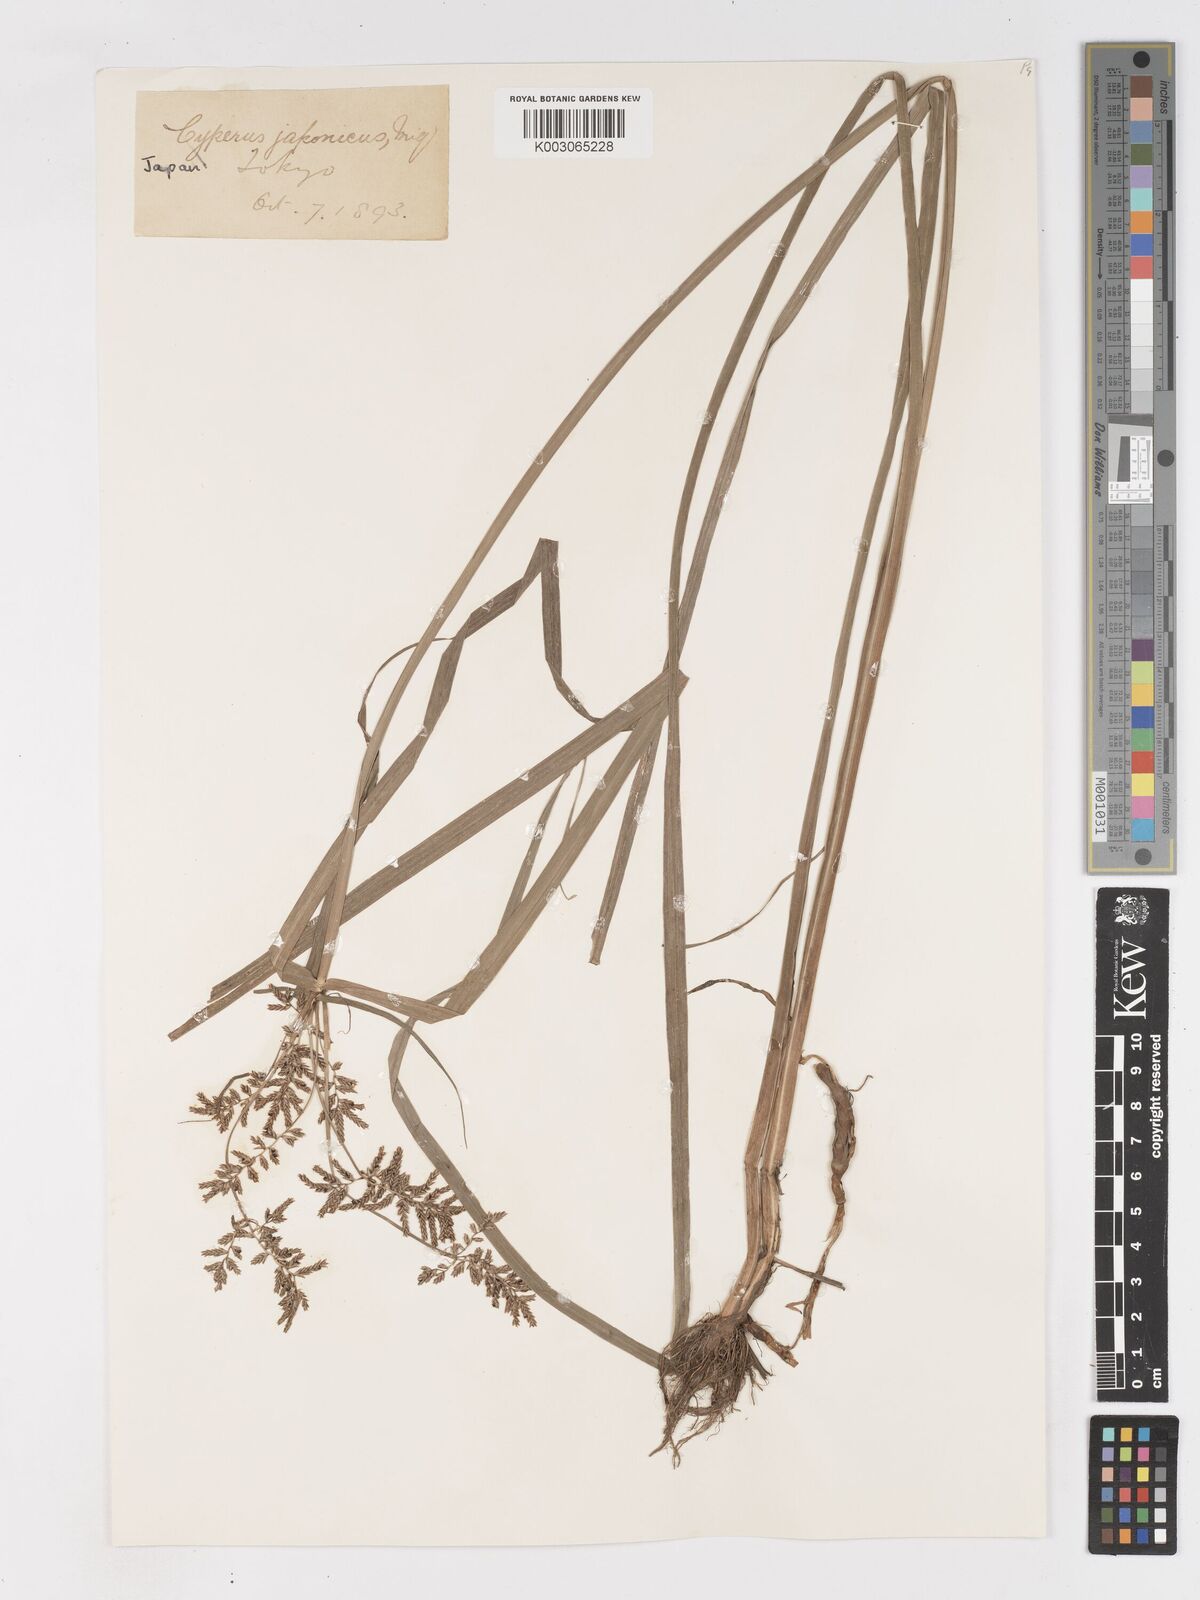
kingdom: Plantae
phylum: Tracheophyta
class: Liliopsida
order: Poales
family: Cyperaceae
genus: Cyperus
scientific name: Cyperus serotinus
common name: Tidalmarsh flatsedge
